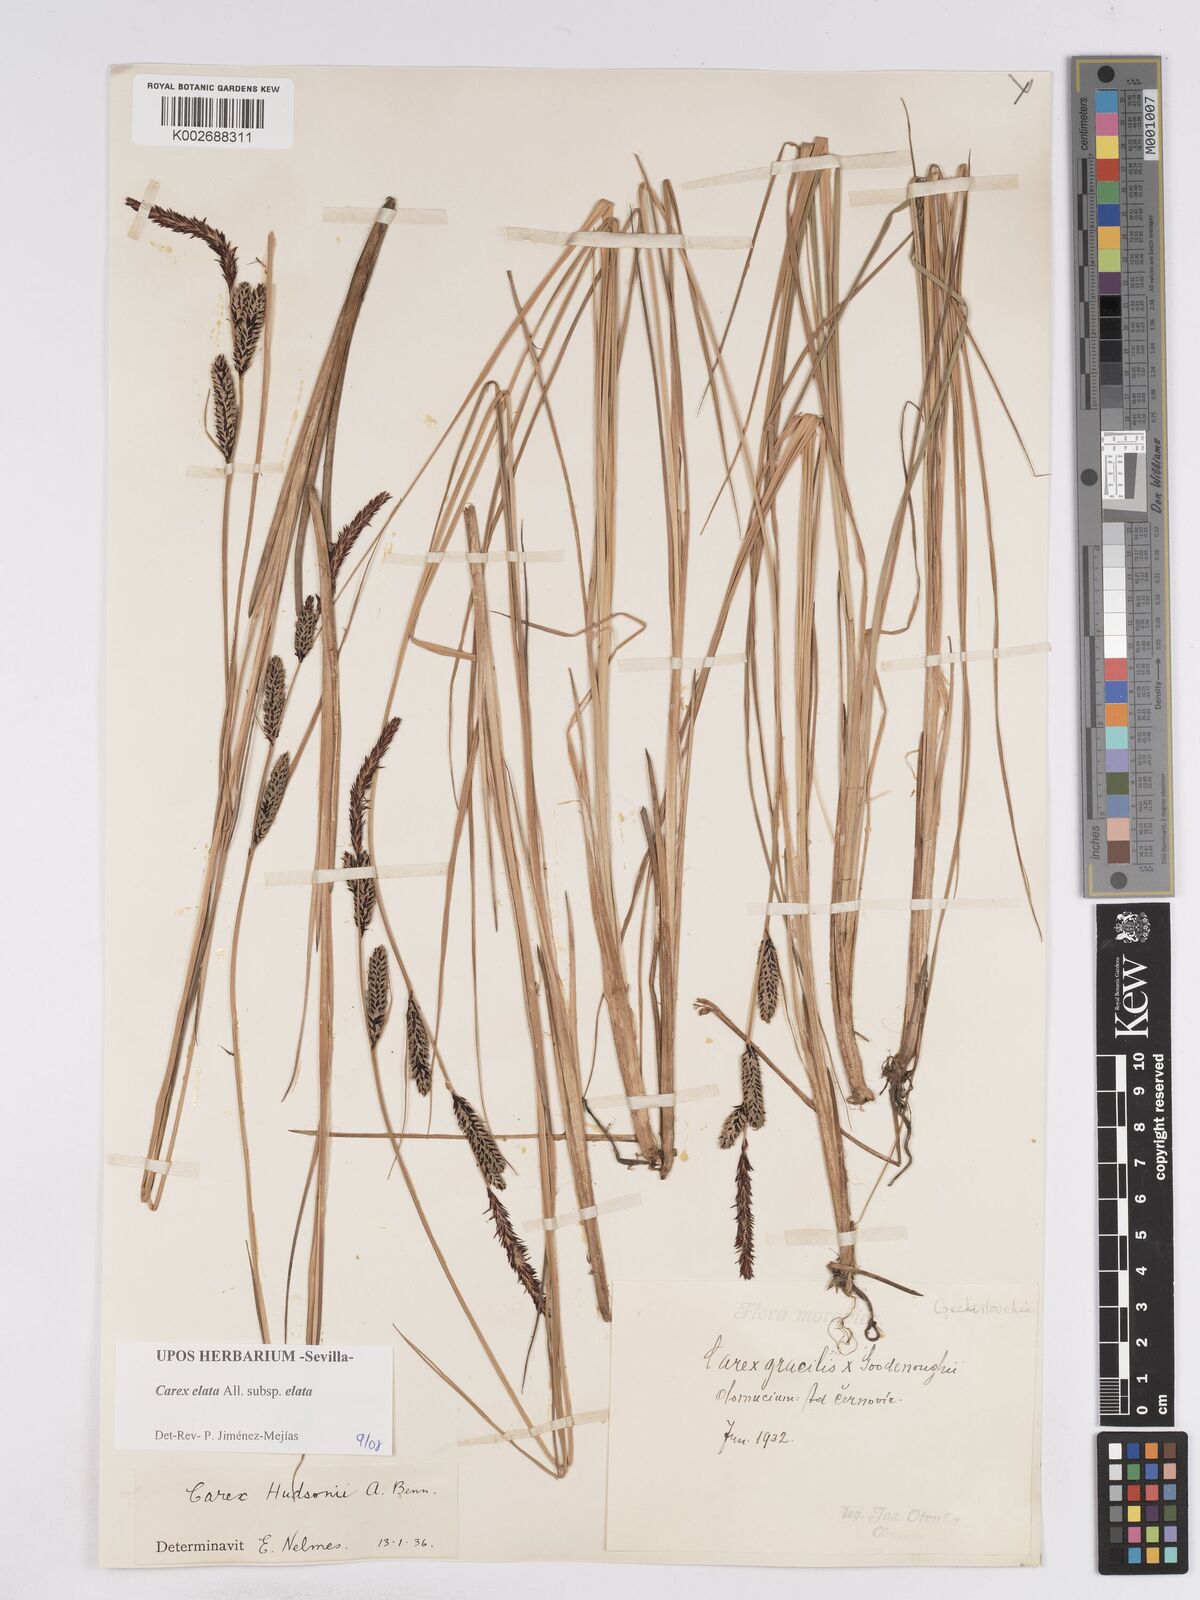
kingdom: Plantae
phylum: Tracheophyta
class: Liliopsida
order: Poales
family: Cyperaceae
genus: Carex
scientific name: Carex elata
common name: Tufted sedge
